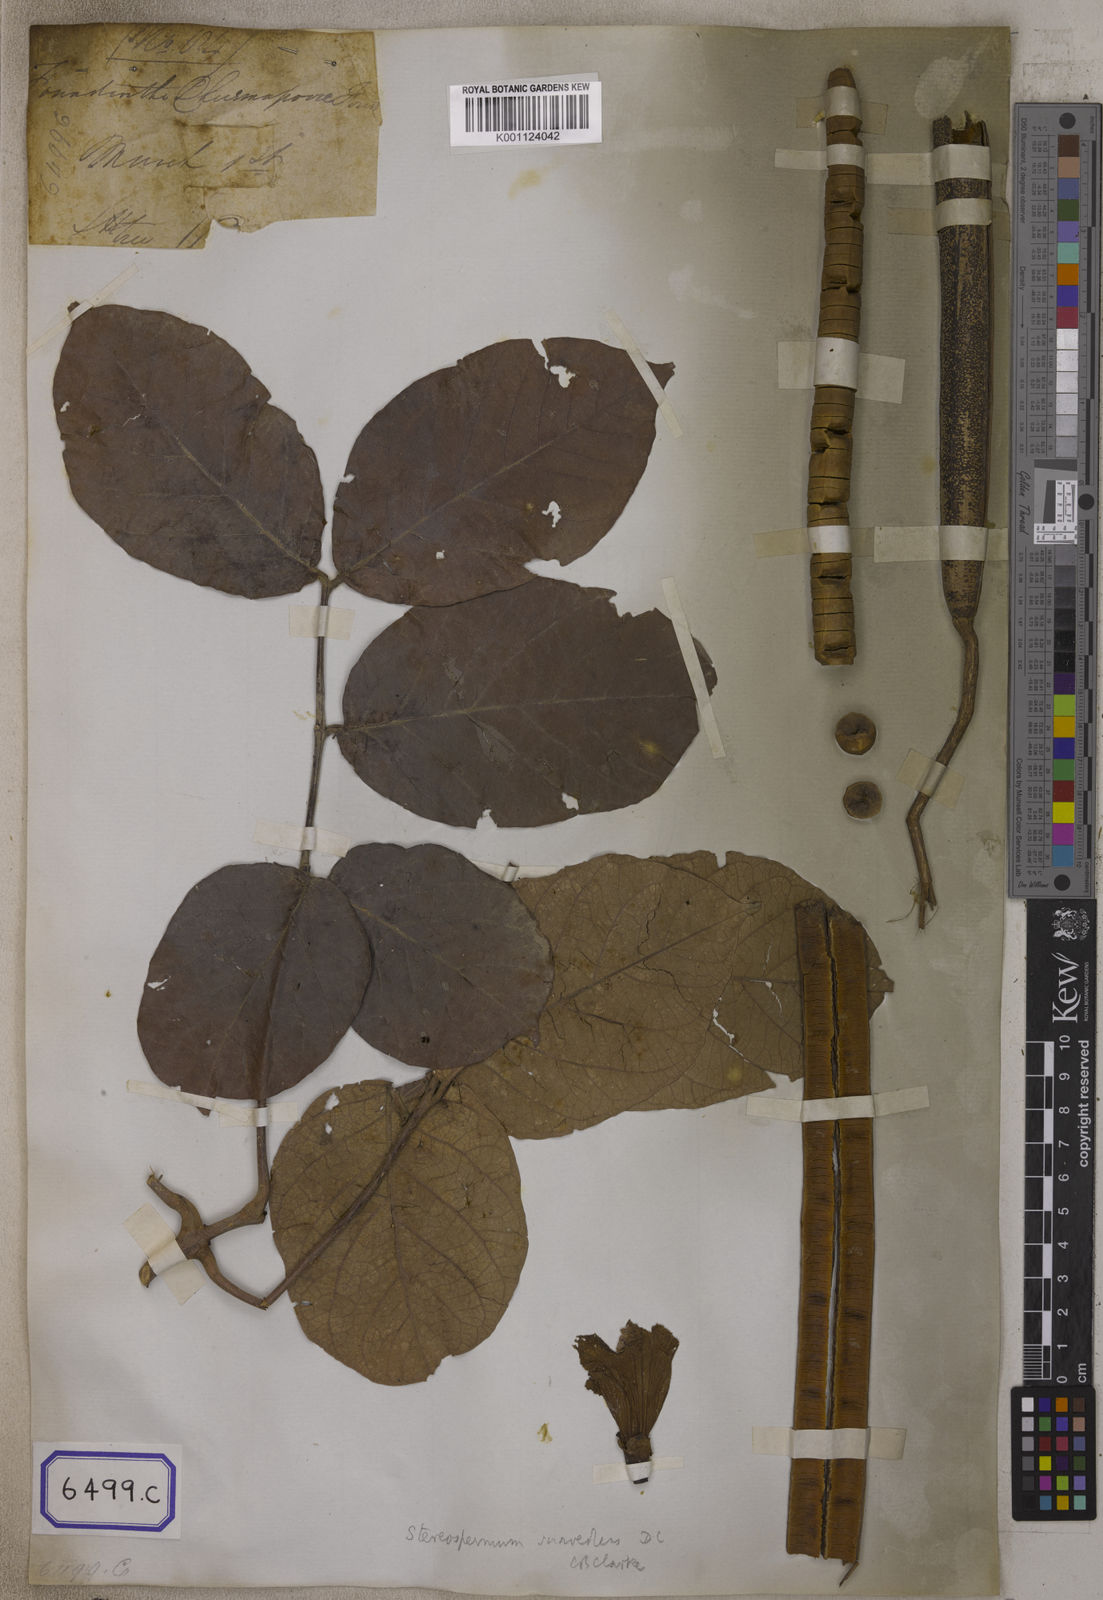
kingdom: Plantae
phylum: Tracheophyta
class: Magnoliopsida
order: Lamiales
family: Bignoniaceae
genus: Stereospermum
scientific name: Stereospermum chelonoides
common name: Fragrant padritree
